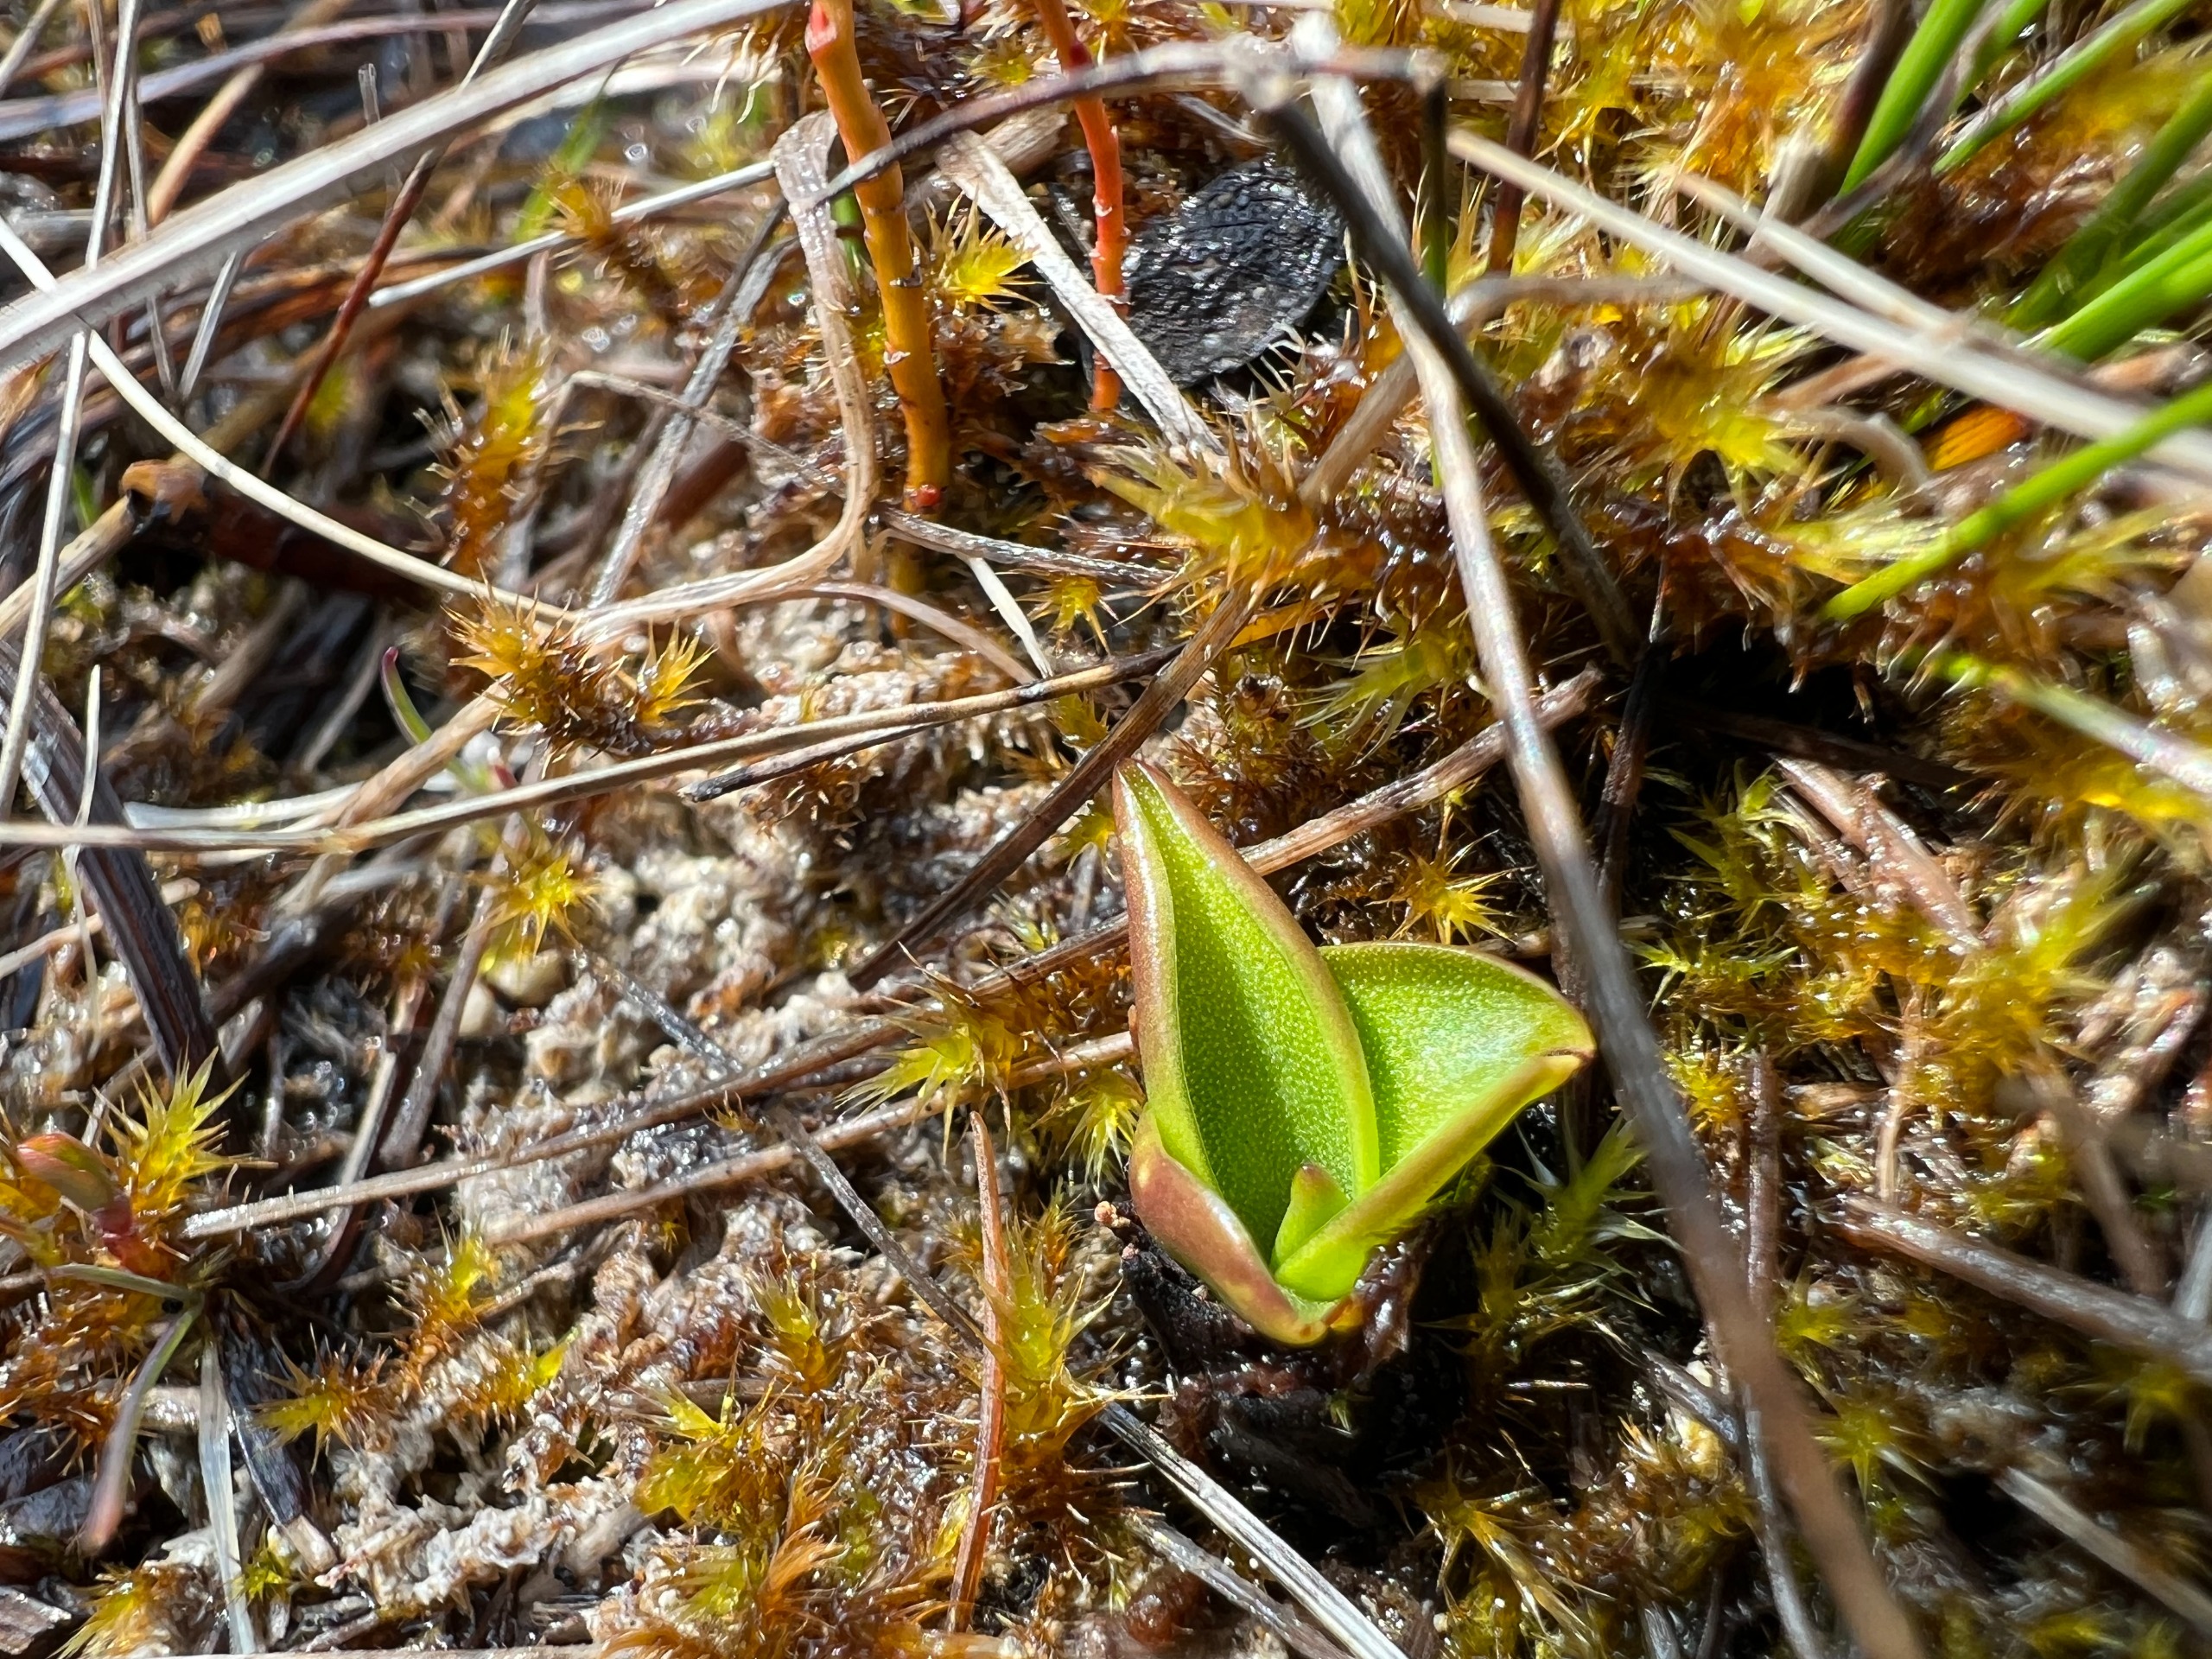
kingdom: Plantae
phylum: Tracheophyta
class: Magnoliopsida
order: Lamiales
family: Lentibulariaceae
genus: Pinguicula
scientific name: Pinguicula vulgaris
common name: Vibefedt
